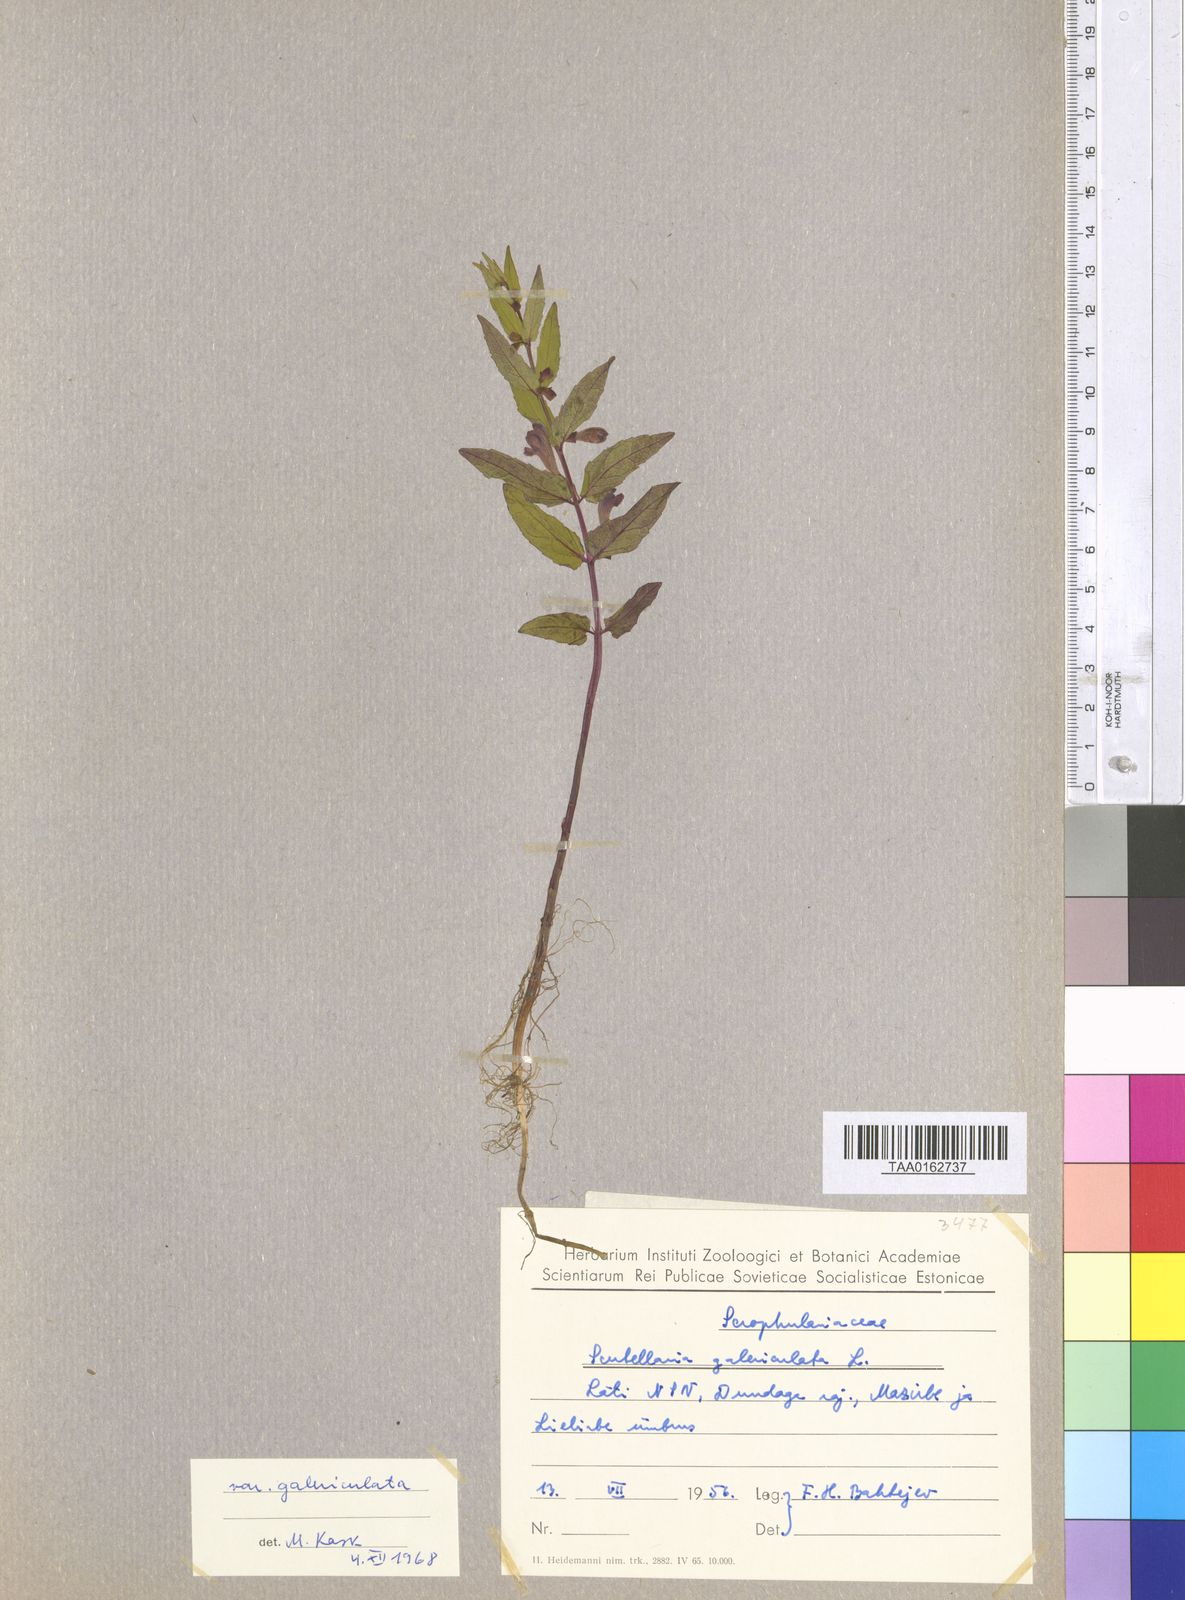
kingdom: Plantae
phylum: Tracheophyta
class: Magnoliopsida
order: Lamiales
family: Lamiaceae
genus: Scutellaria
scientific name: Scutellaria galericulata
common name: Skullcap
